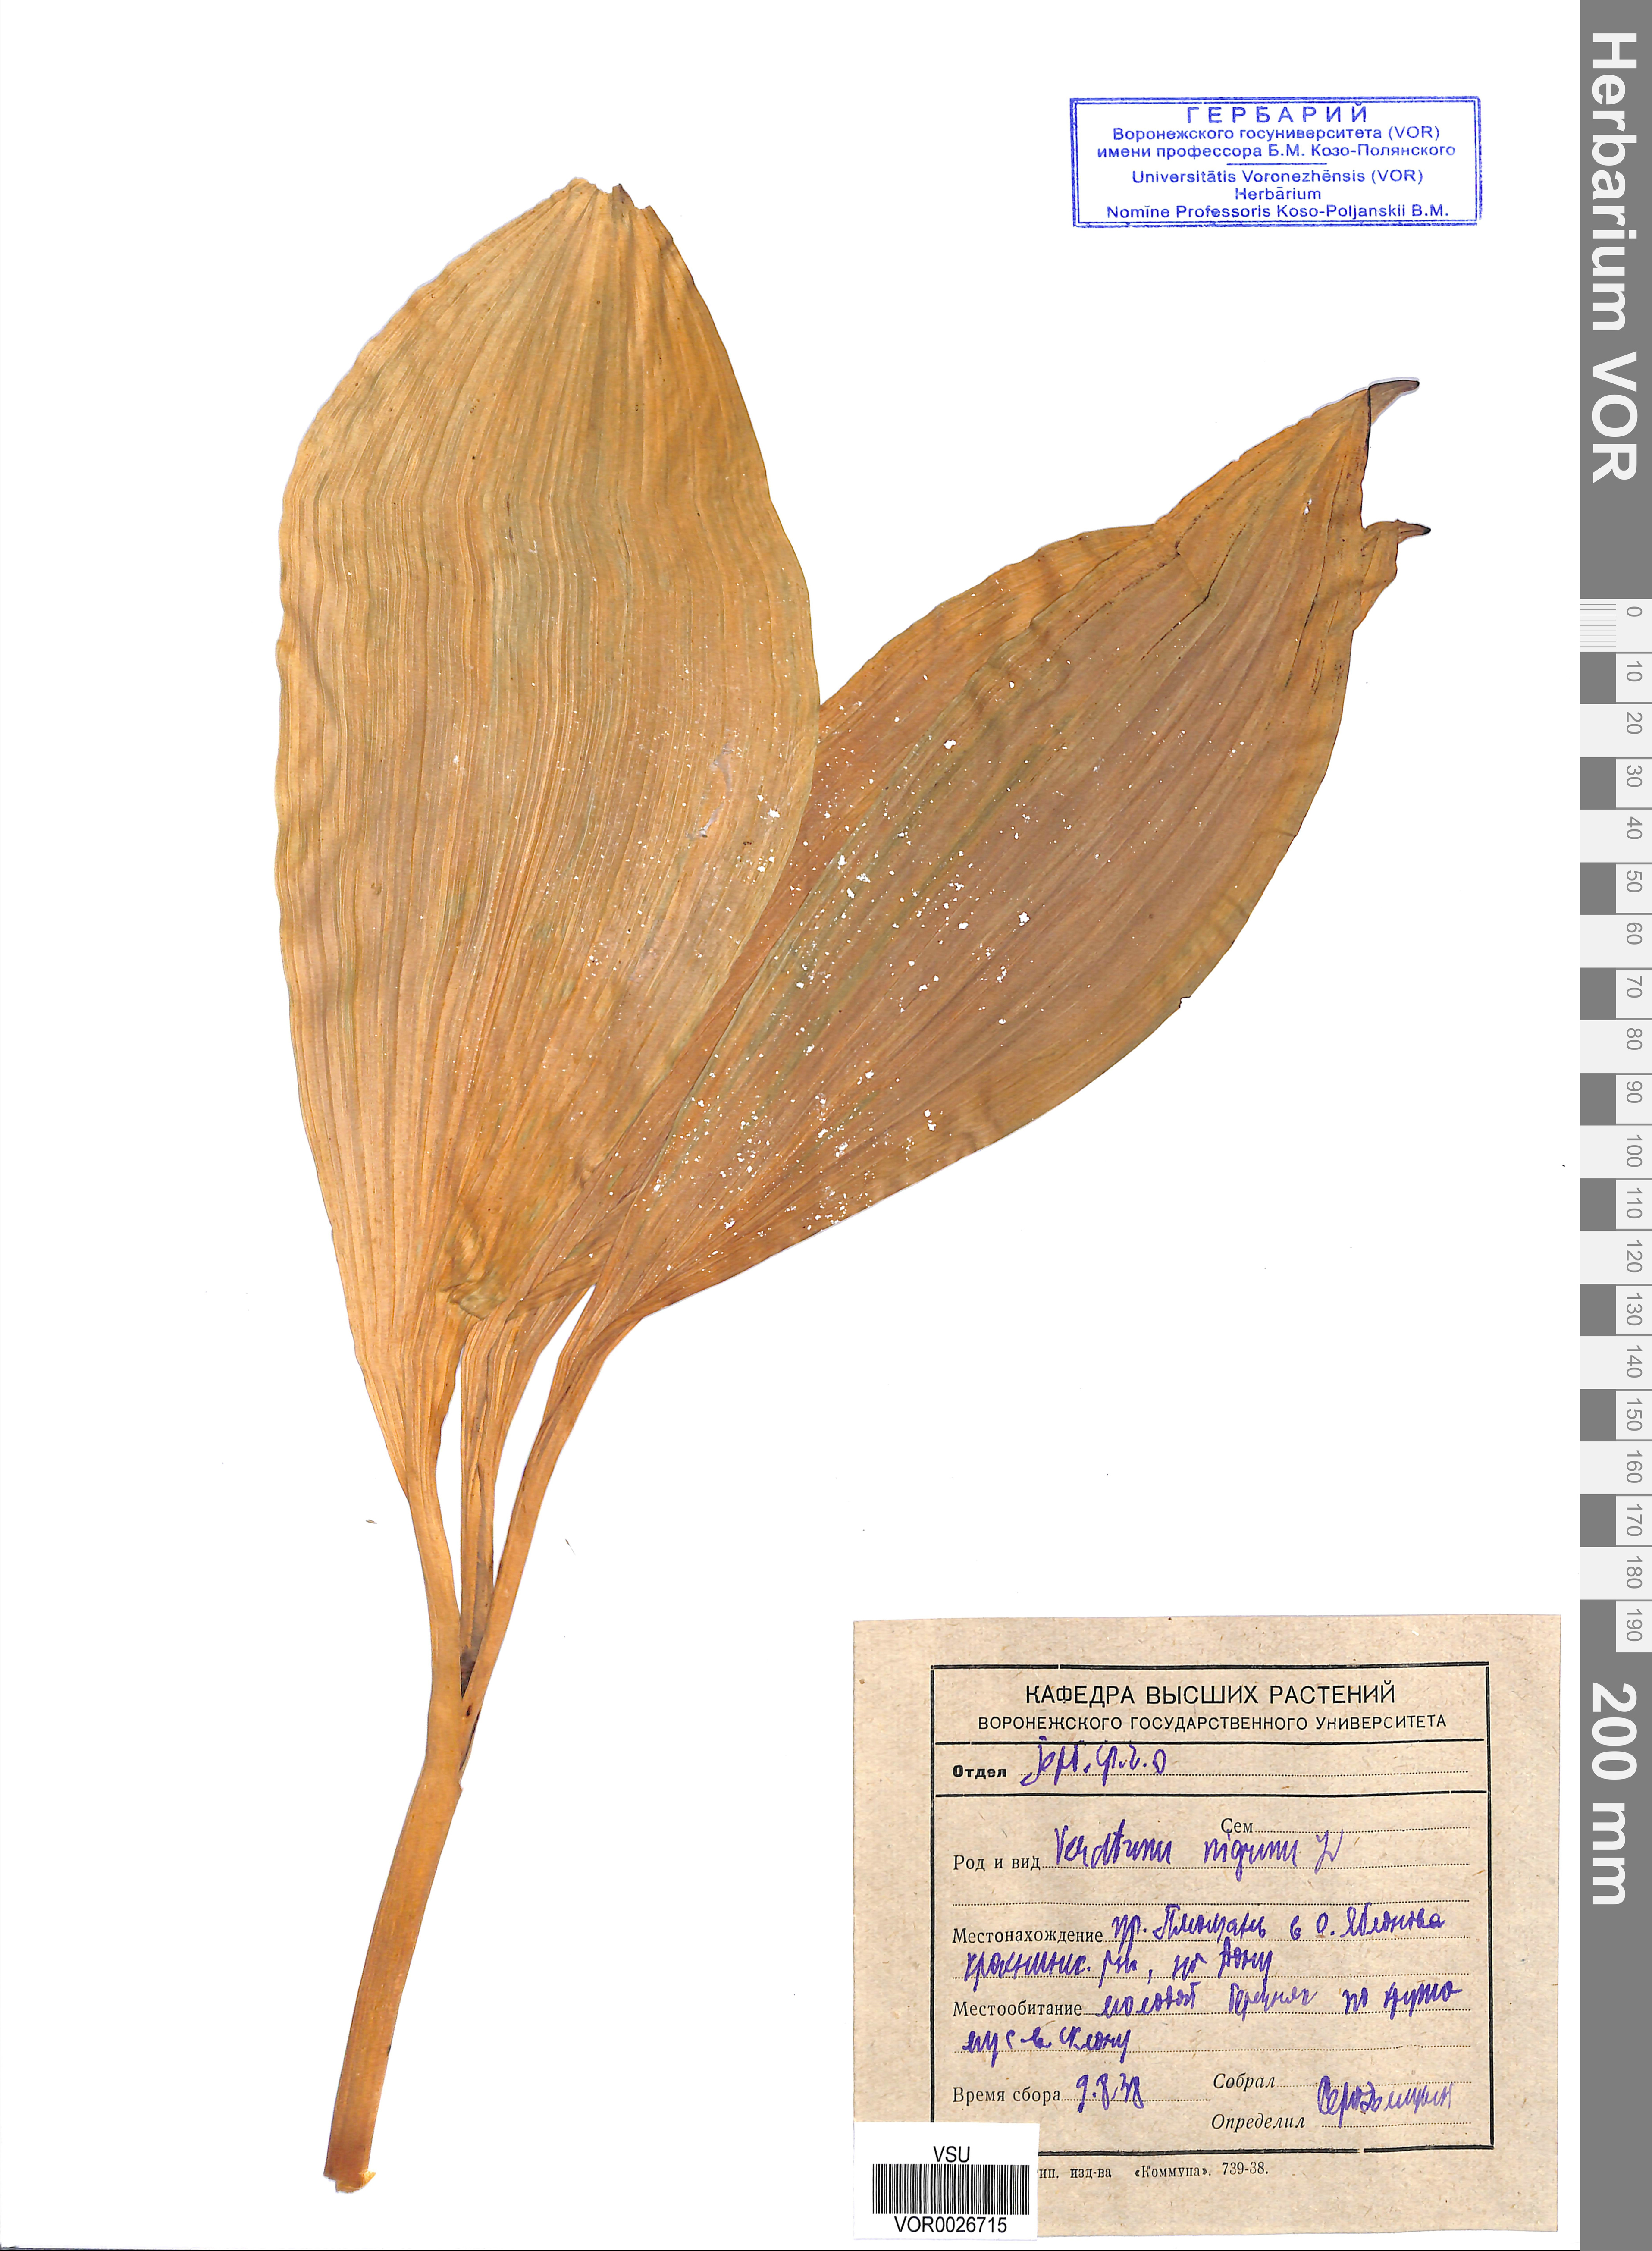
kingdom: Plantae
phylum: Tracheophyta
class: Liliopsida
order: Liliales
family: Melanthiaceae
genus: Veratrum
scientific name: Veratrum nigrum
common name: Black veratrum
